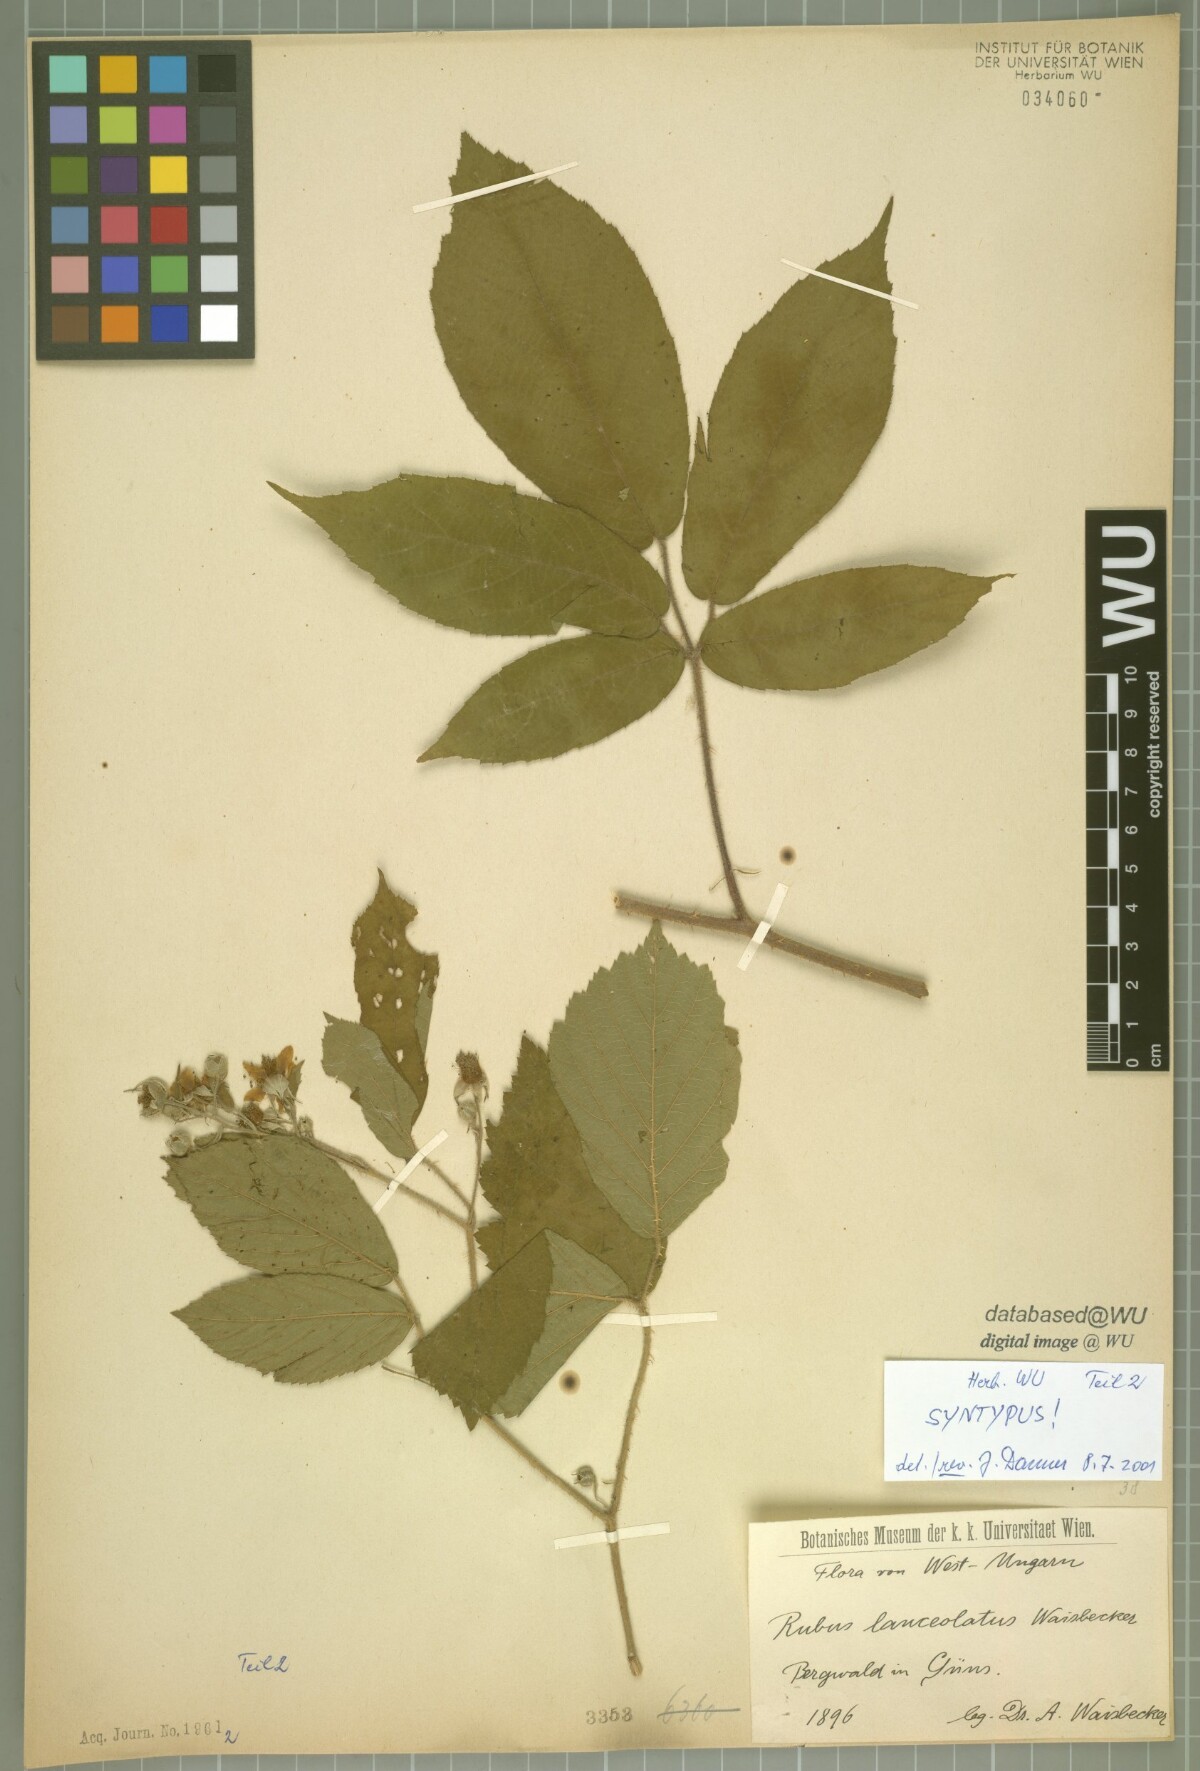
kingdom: Plantae
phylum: Tracheophyta
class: Magnoliopsida
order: Rosales
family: Rosaceae
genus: Rubus
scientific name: Rubus lanceolatus
